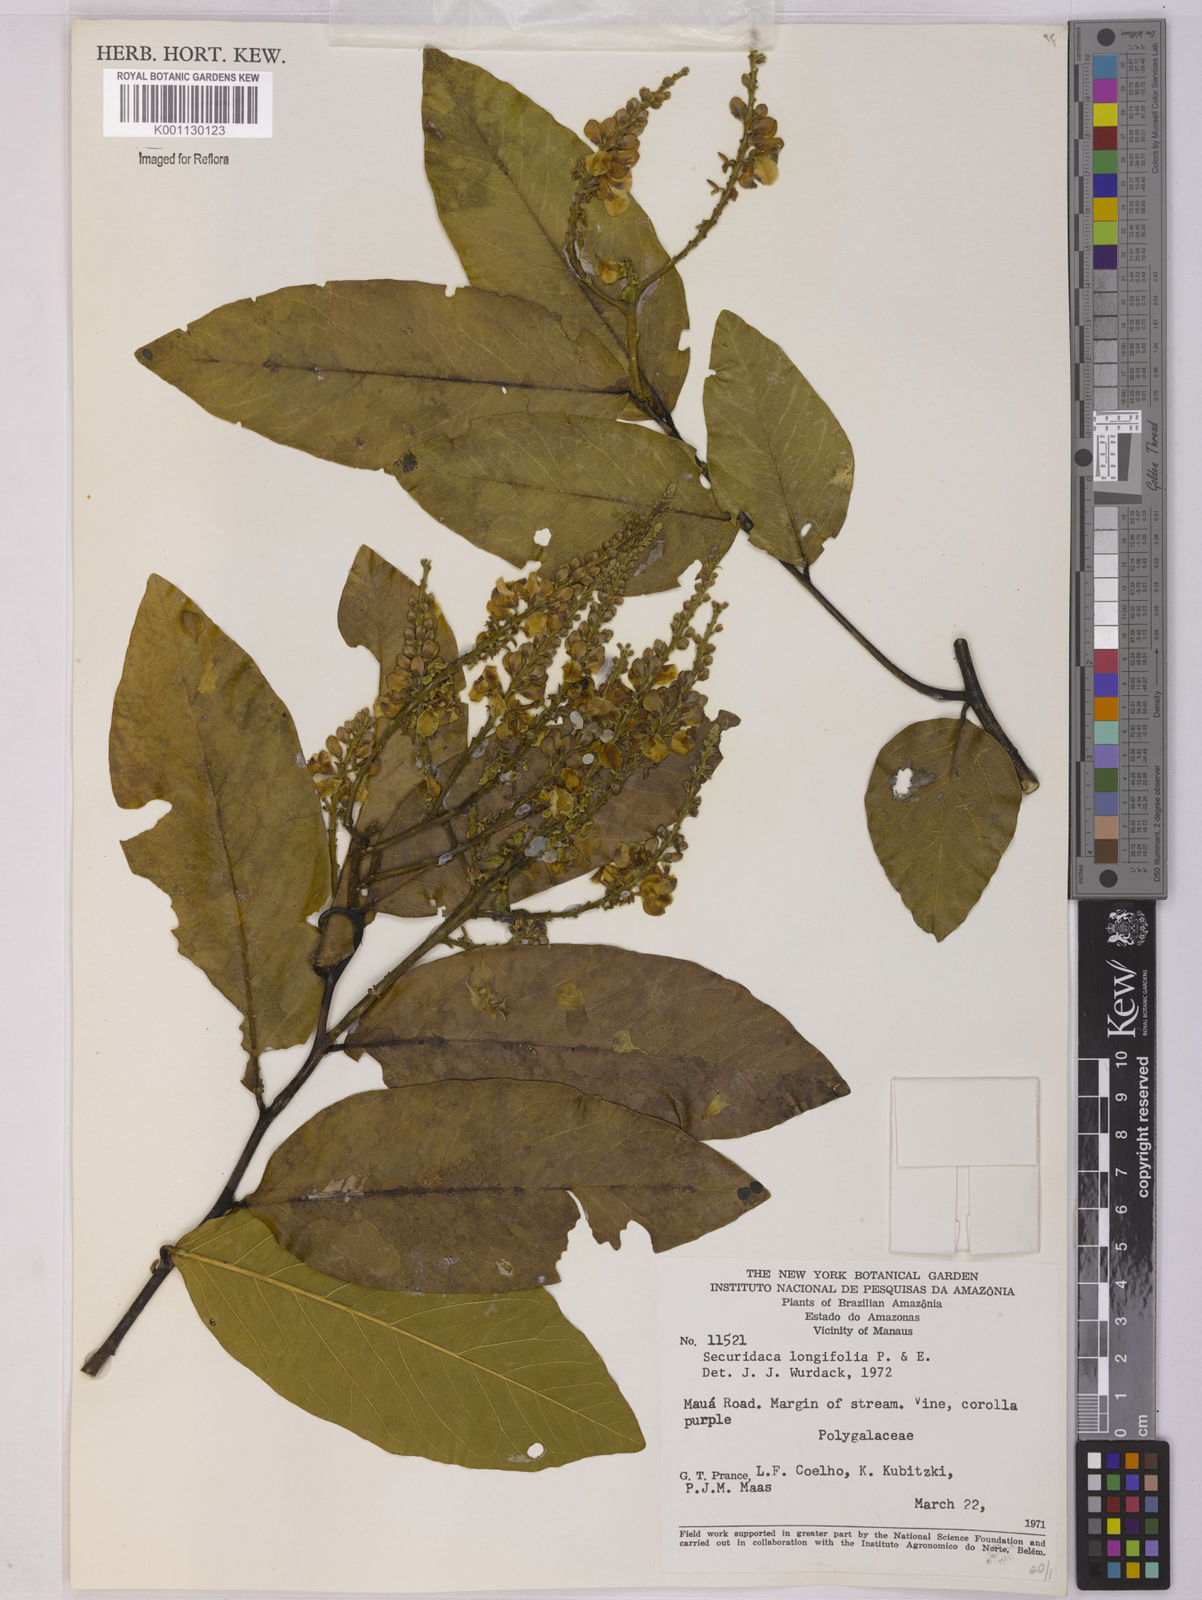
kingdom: Plantae
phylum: Tracheophyta
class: Magnoliopsida
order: Fabales
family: Polygalaceae
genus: Securidaca
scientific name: Securidaca longifolia
